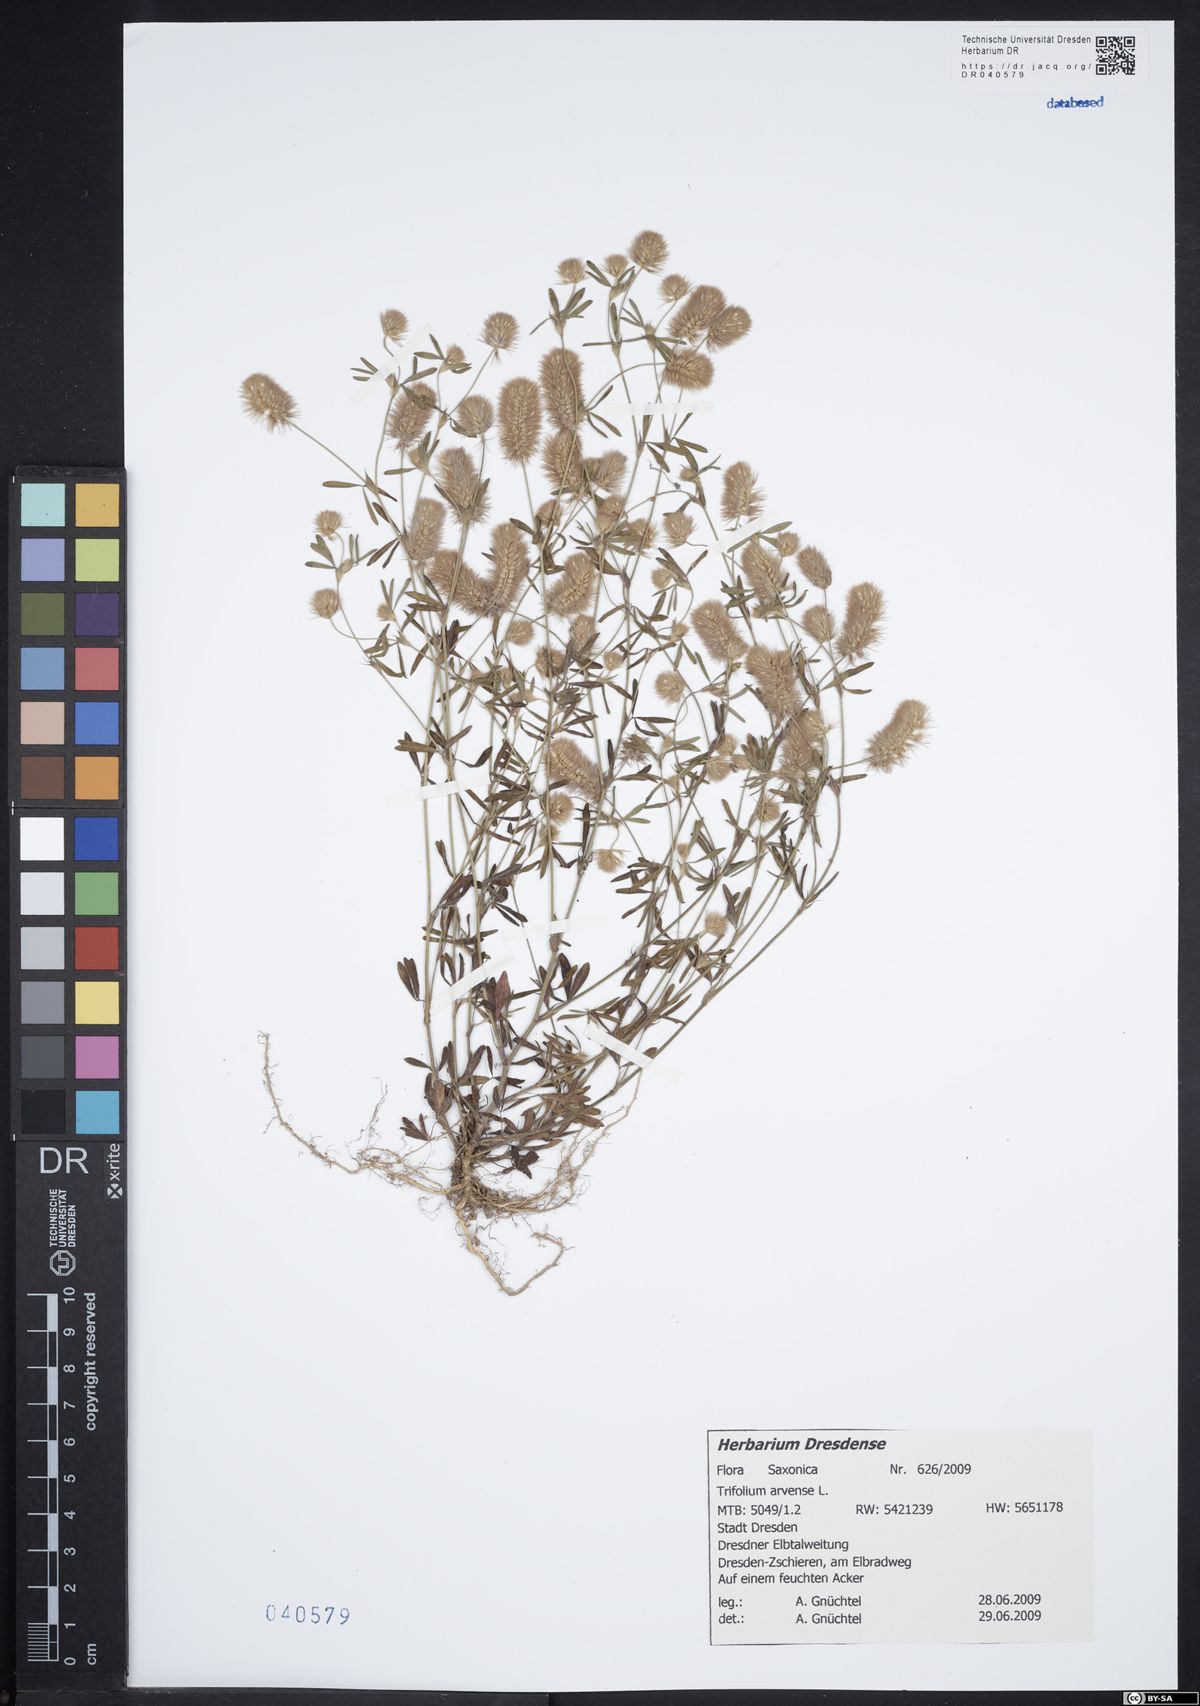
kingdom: Plantae
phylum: Tracheophyta
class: Magnoliopsida
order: Fabales
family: Fabaceae
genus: Trifolium
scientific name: Trifolium arvense
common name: Hare's-foot clover
